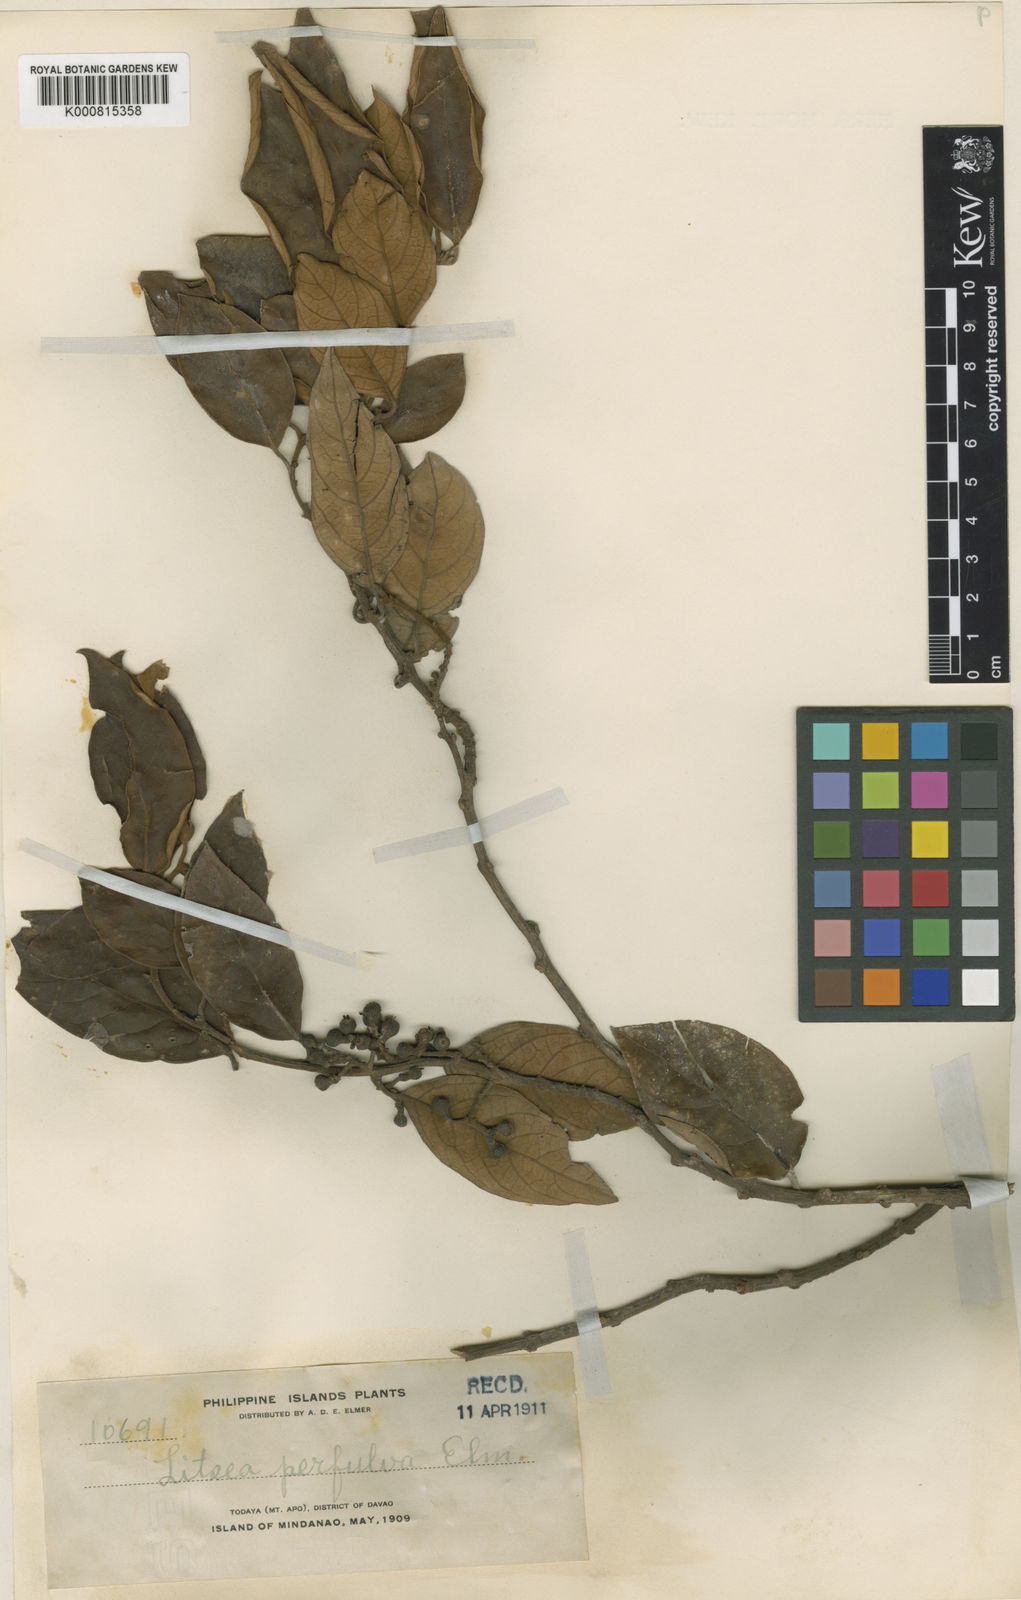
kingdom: Plantae
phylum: Tracheophyta
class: Magnoliopsida
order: Laurales
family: Lauraceae
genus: Litsea
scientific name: Litsea perfulva
